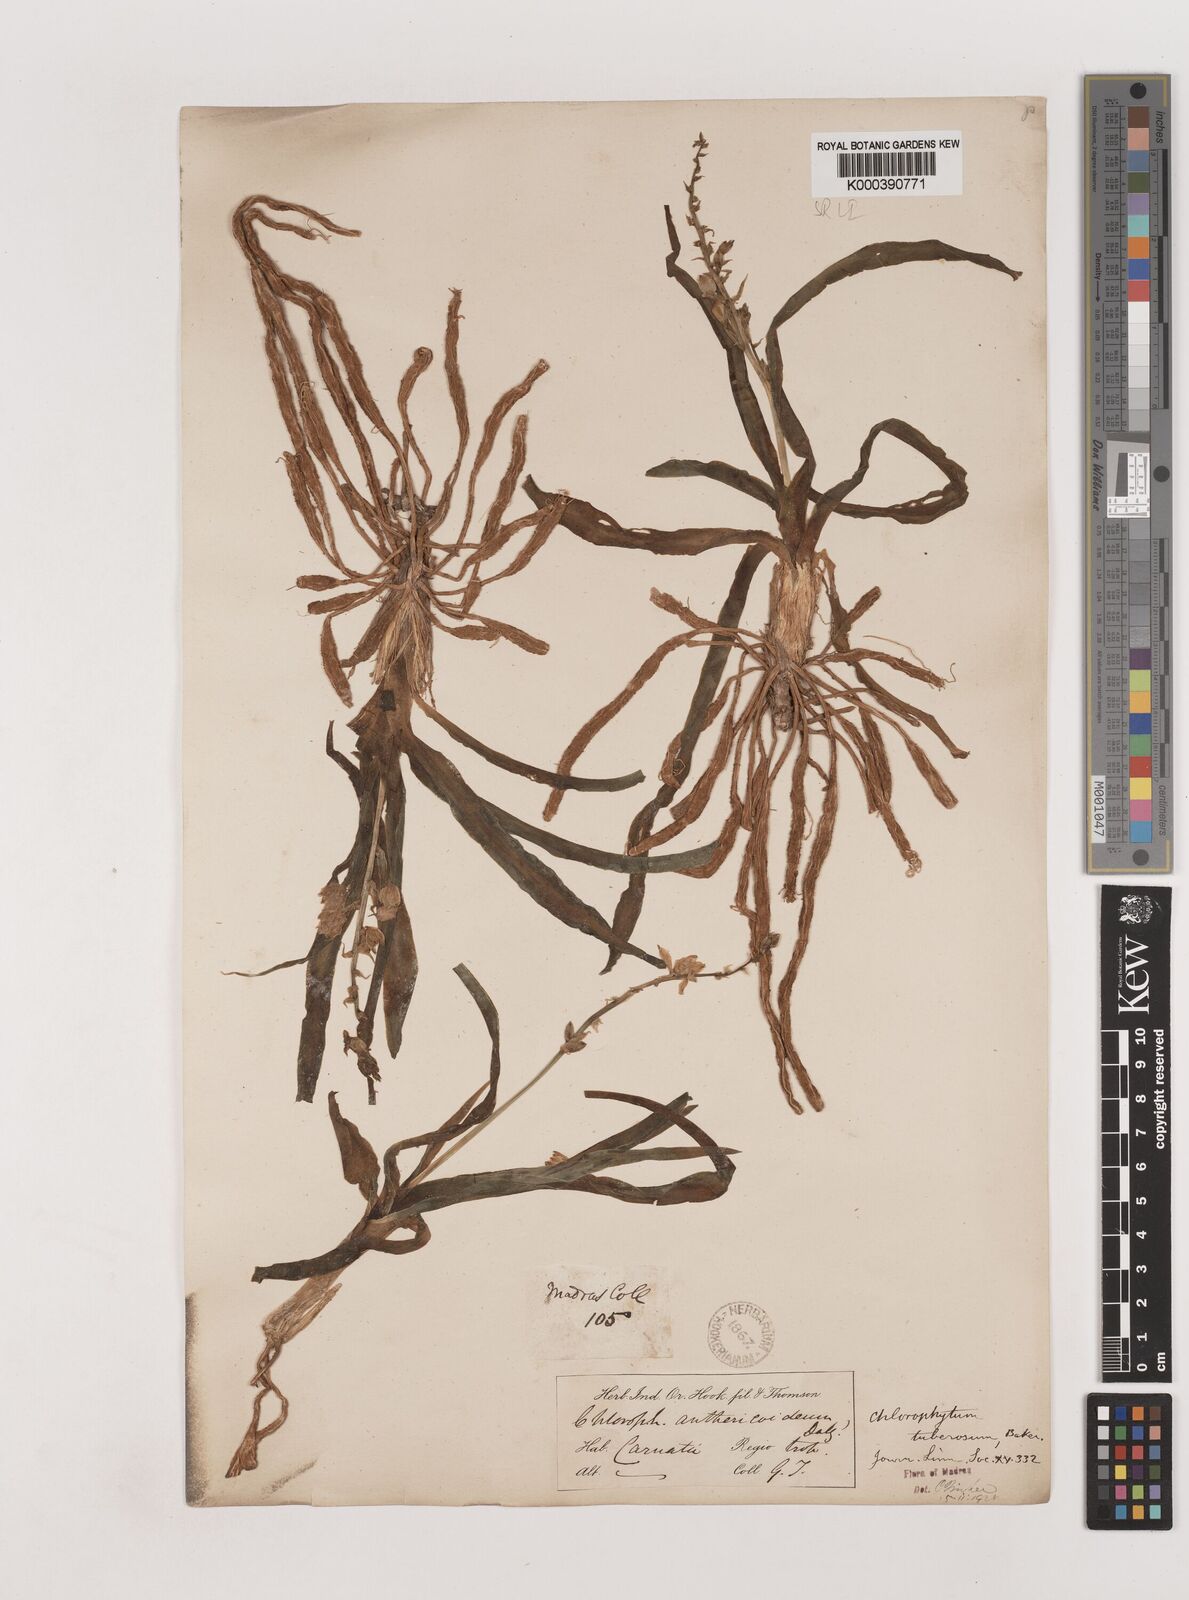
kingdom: Plantae
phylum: Tracheophyta
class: Liliopsida
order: Asparagales
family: Asparagaceae
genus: Chlorophytum
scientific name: Chlorophytum tuberosum
